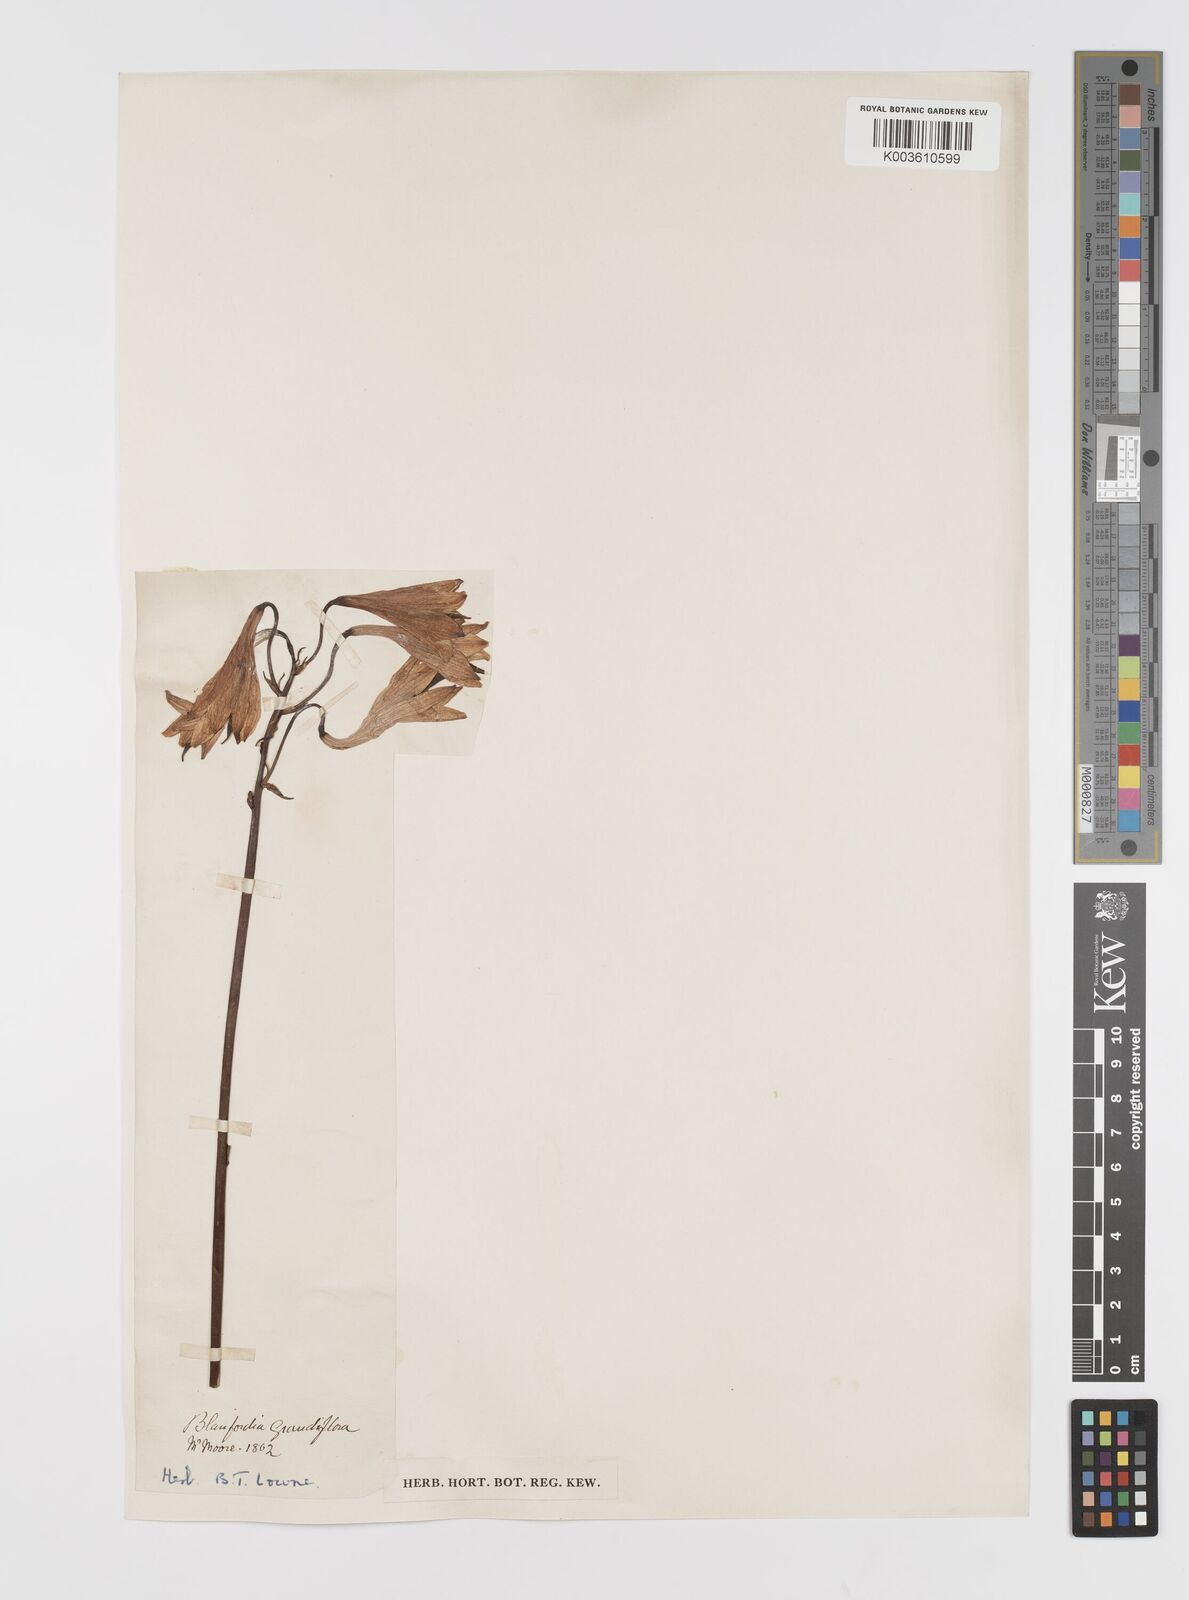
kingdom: Plantae
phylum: Tracheophyta
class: Liliopsida
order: Asparagales
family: Blandfordiaceae
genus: Blandfordia
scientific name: Blandfordia grandiflora
